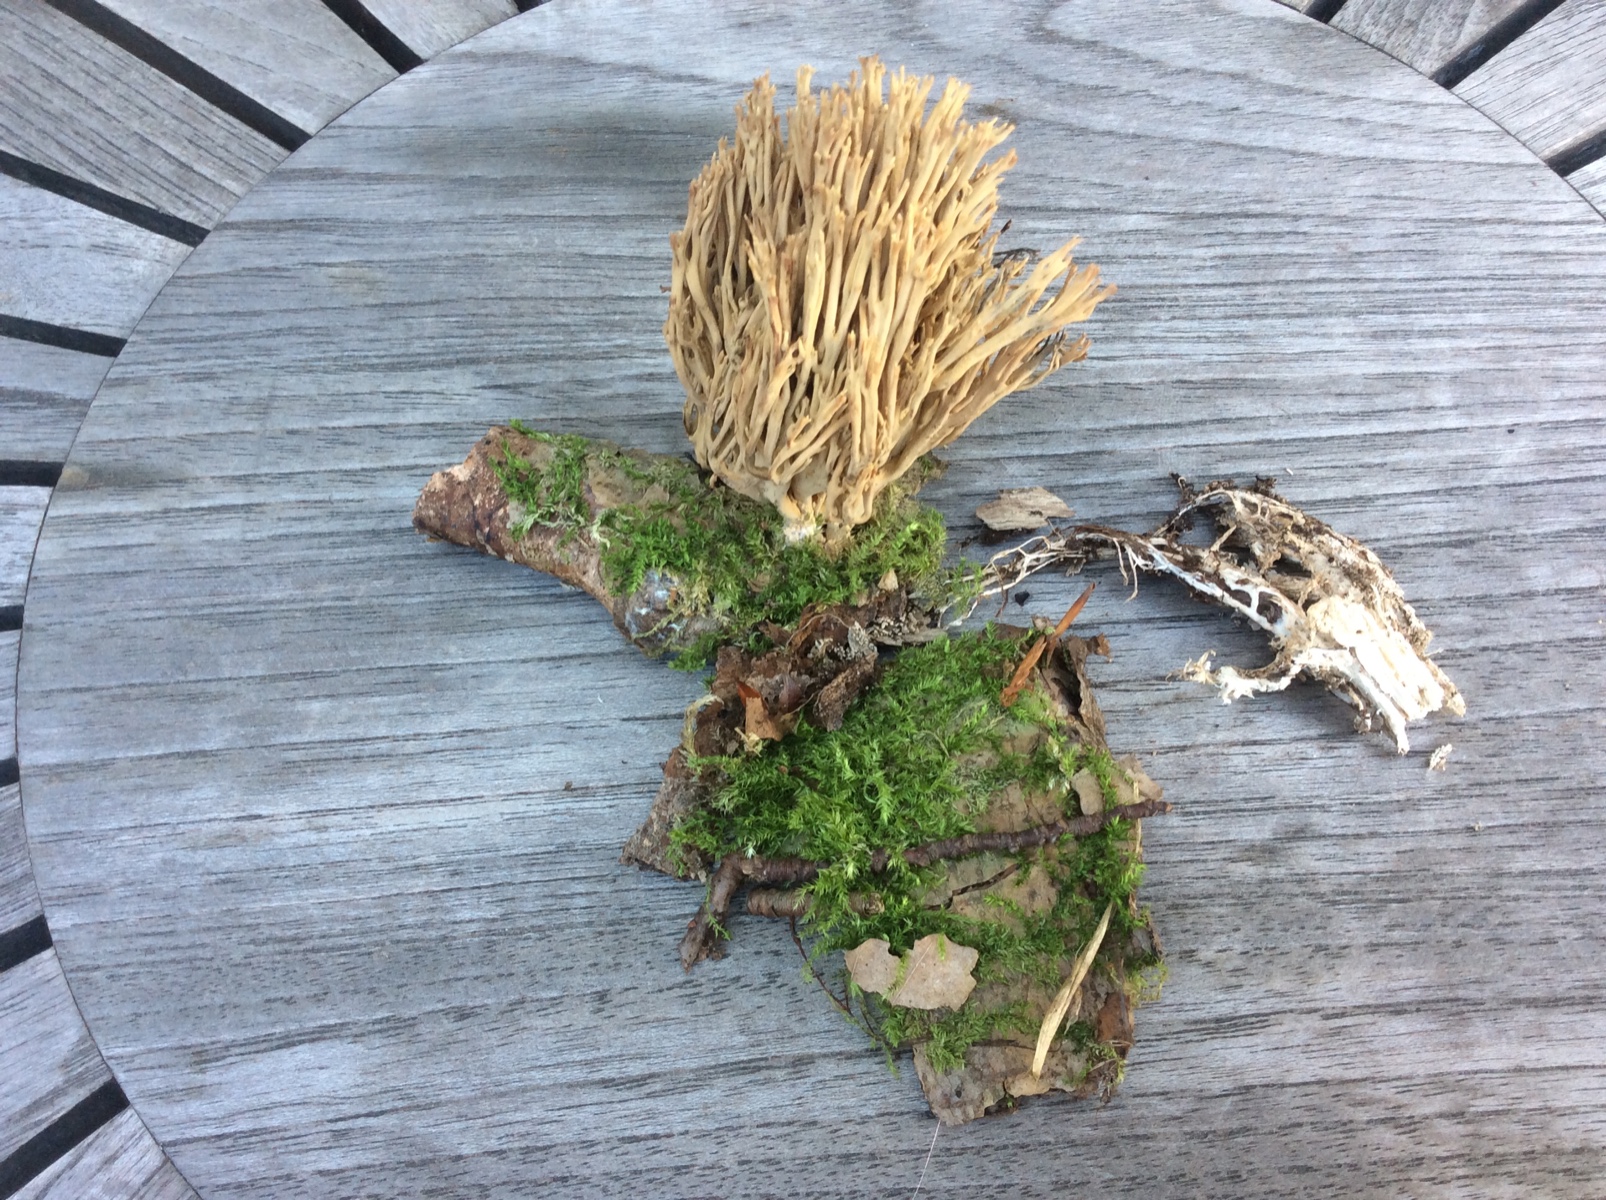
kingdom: Fungi
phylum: Basidiomycota
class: Agaricomycetes
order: Gomphales
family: Gomphaceae
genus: Ramaria
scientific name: Ramaria stricta
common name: rank koralsvamp
